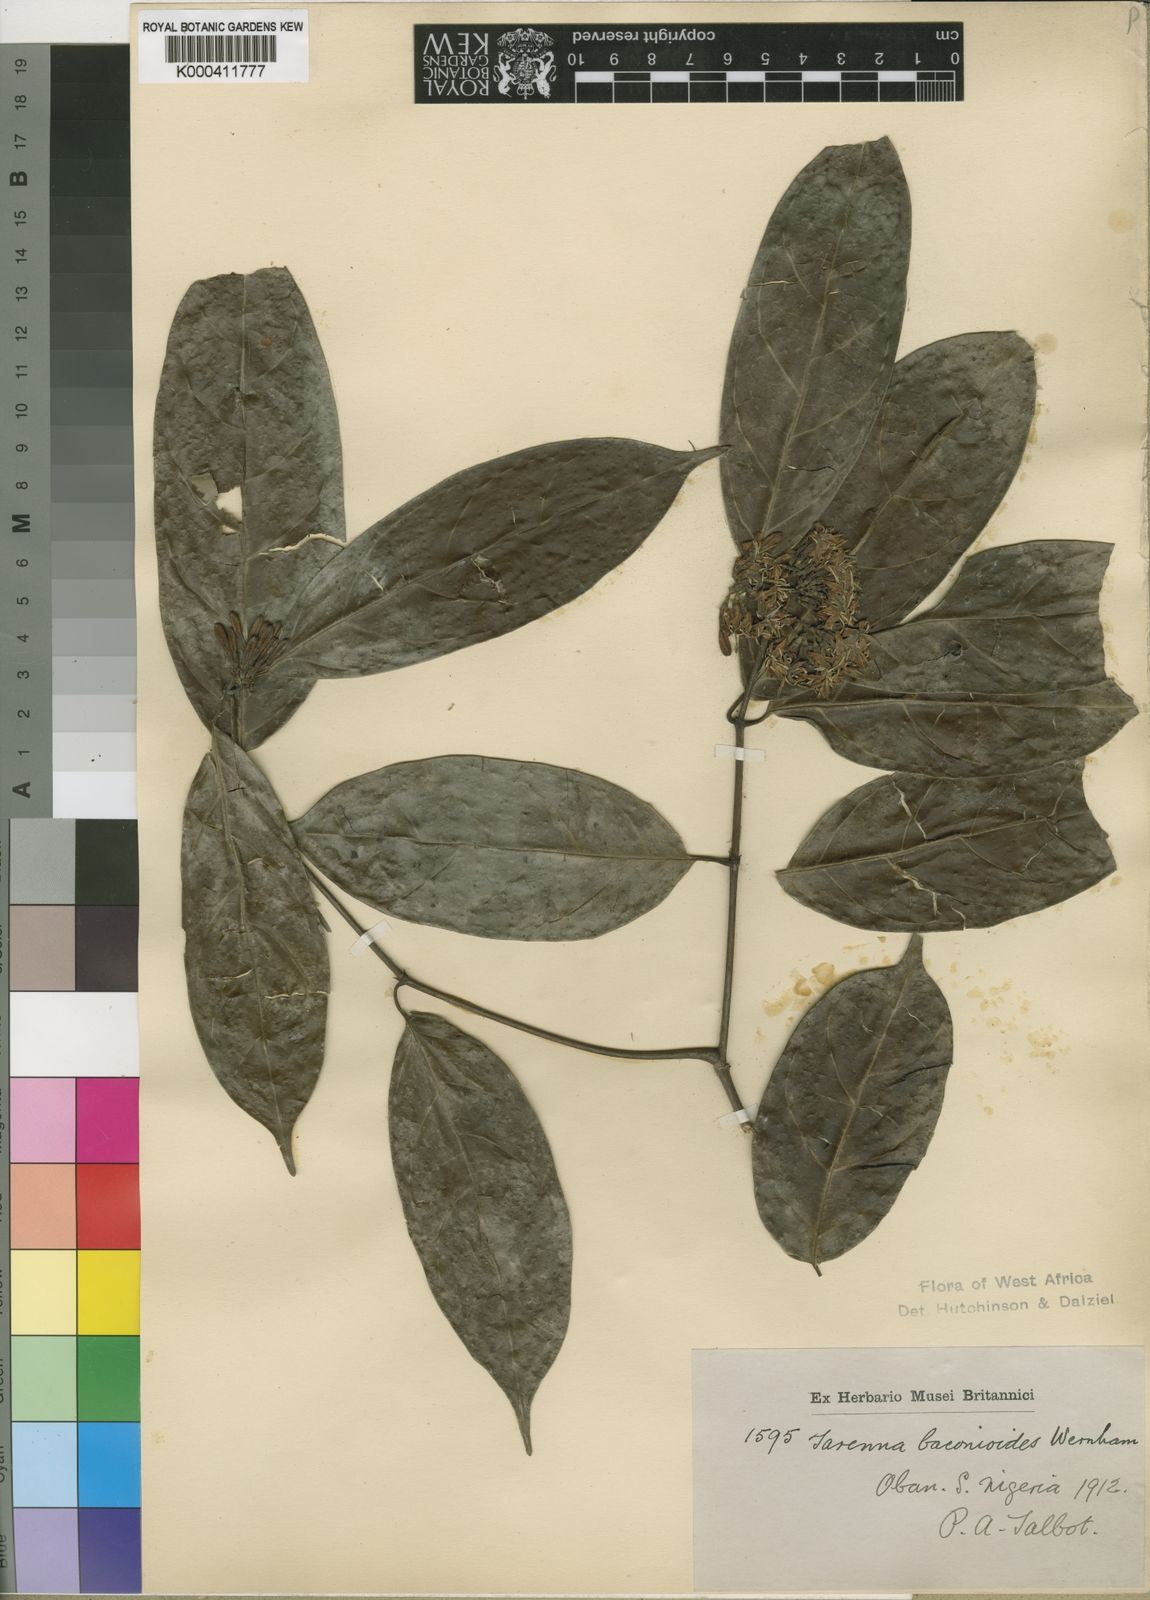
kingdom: Plantae
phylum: Tracheophyta
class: Magnoliopsida
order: Gentianales
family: Rubiaceae
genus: Tarenna
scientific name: Tarenna
